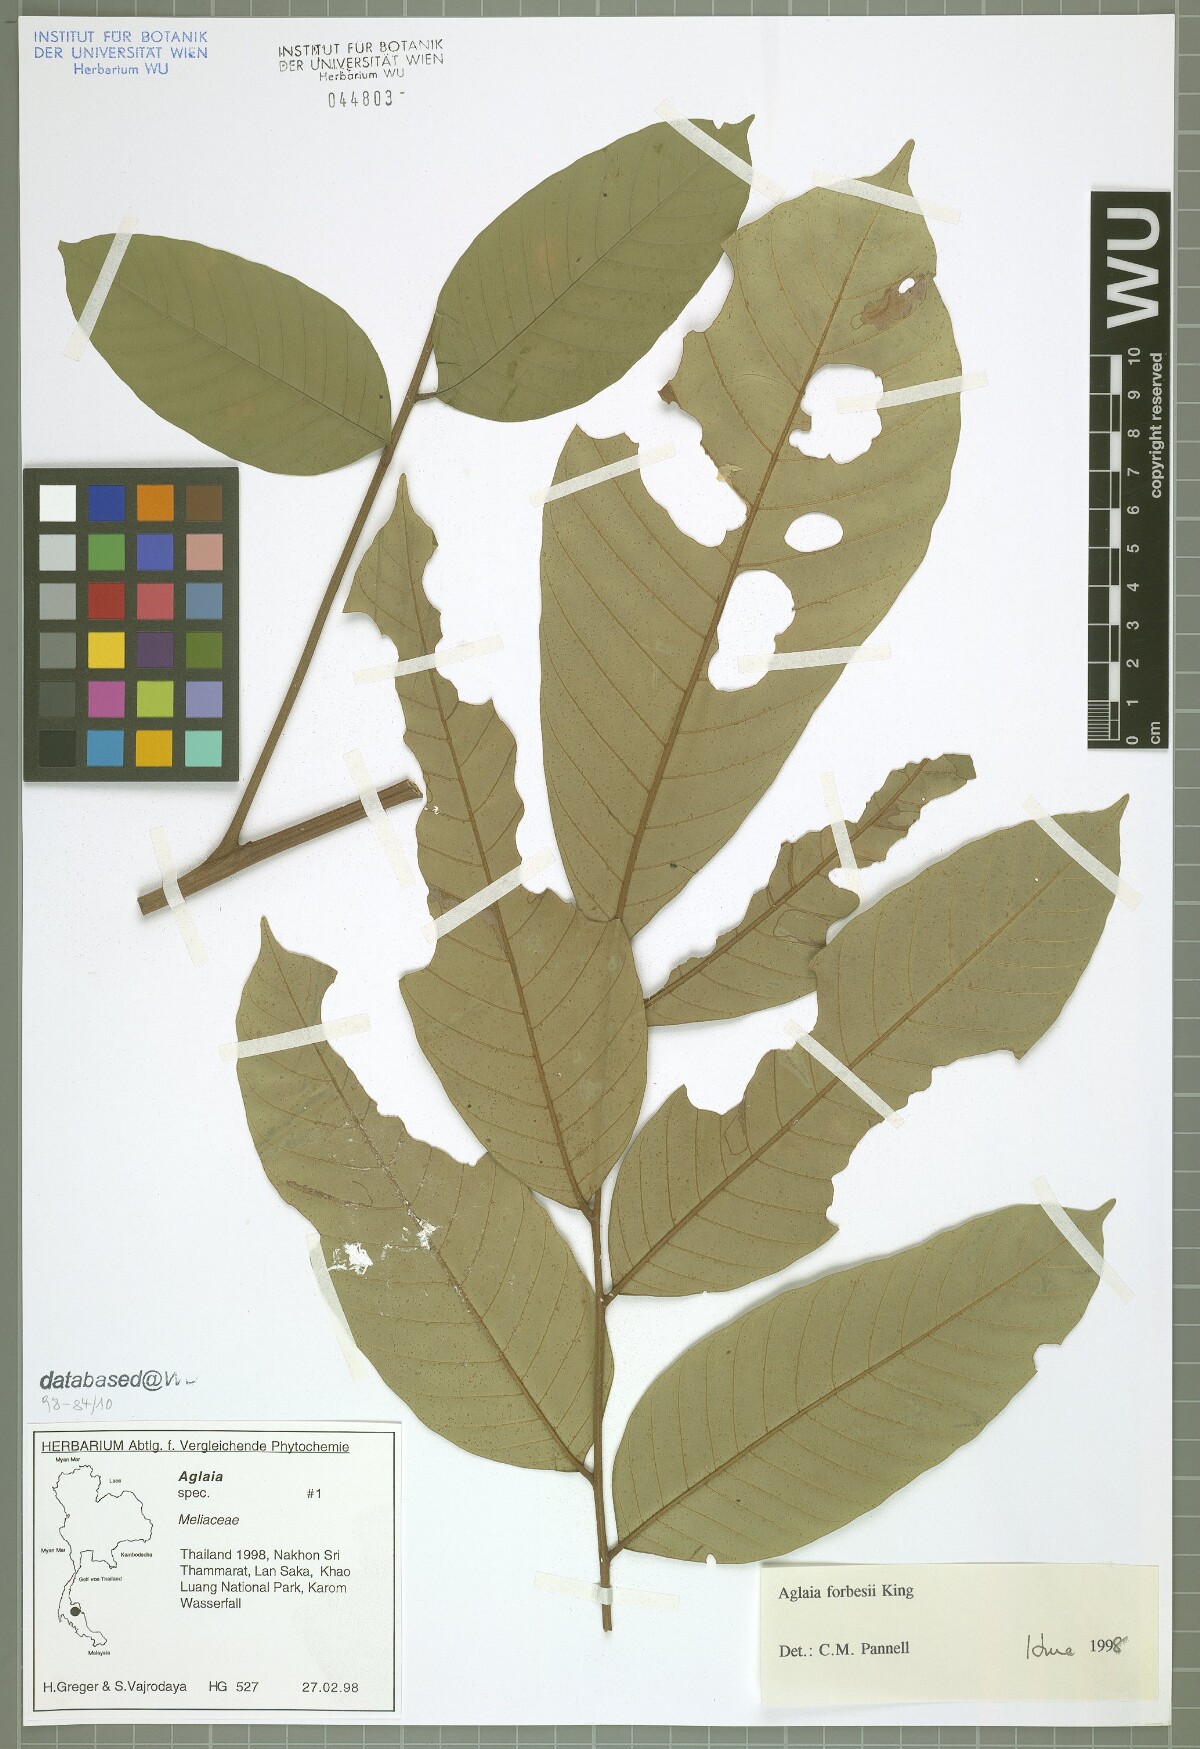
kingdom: Plantae
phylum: Tracheophyta
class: Magnoliopsida
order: Sapindales
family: Meliaceae
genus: Aglaia
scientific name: Aglaia forbesii
